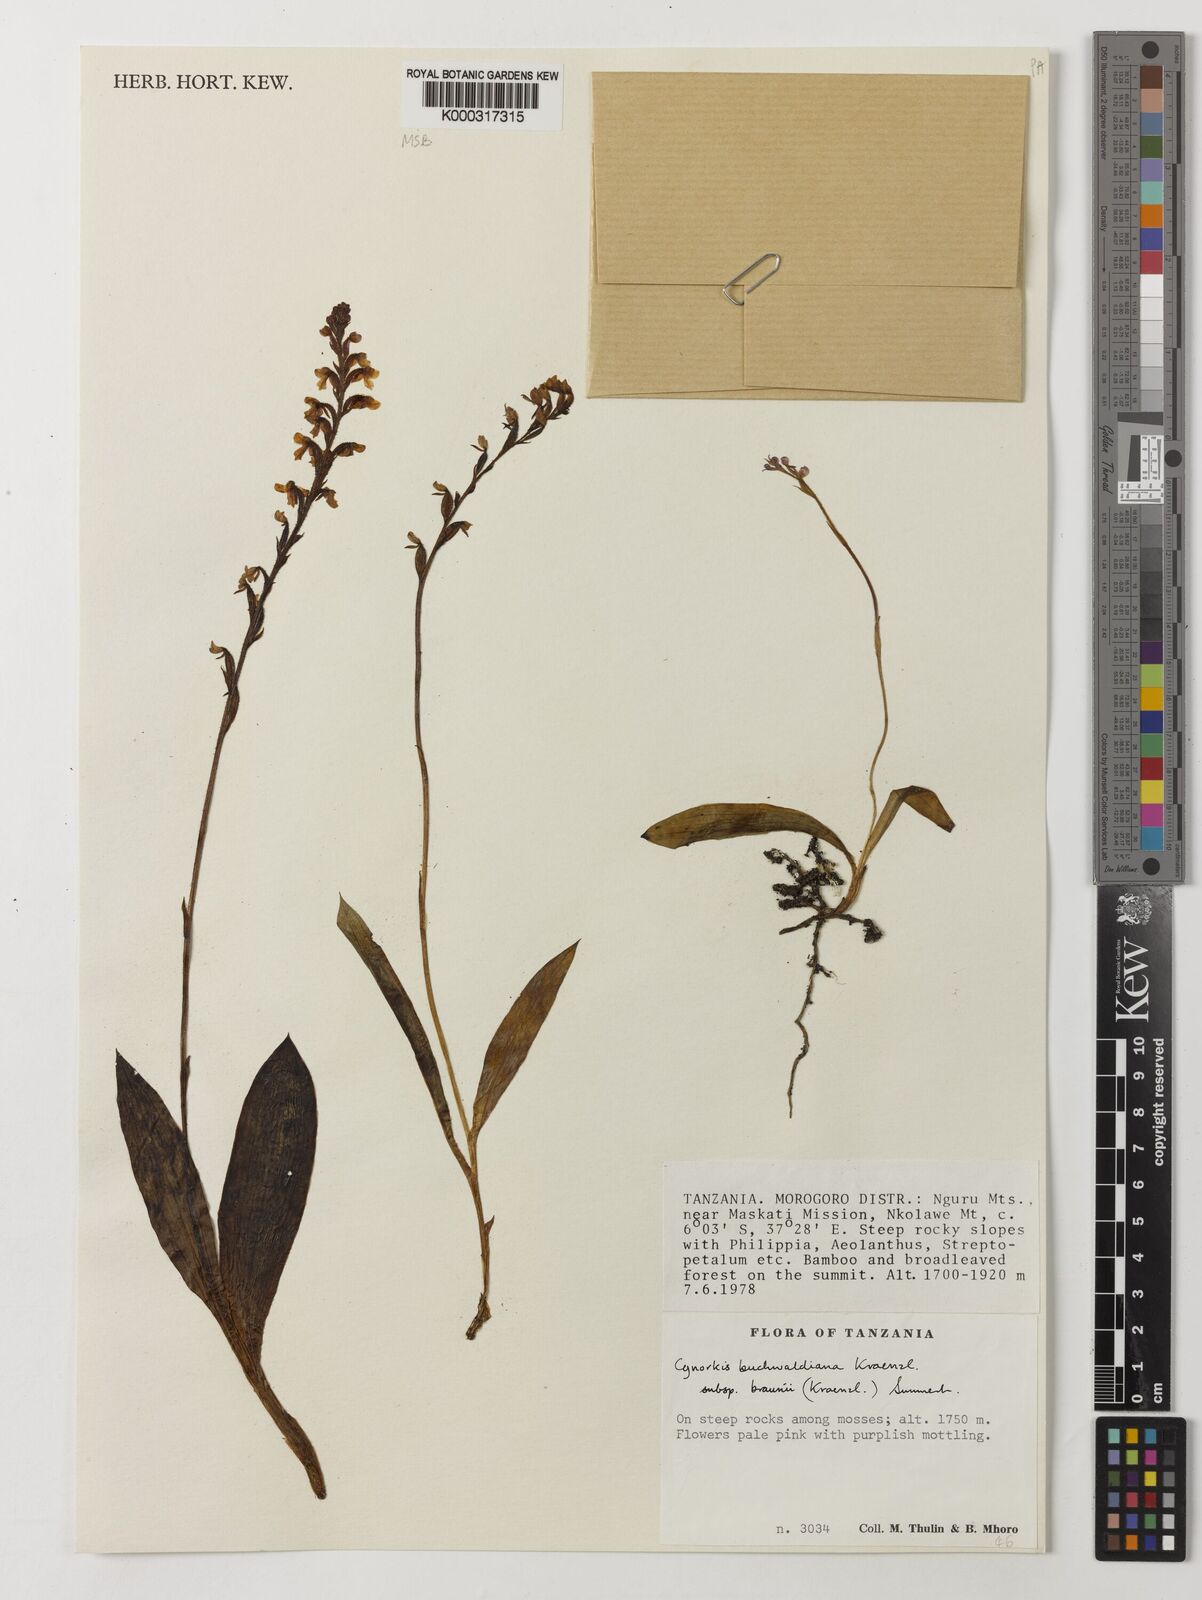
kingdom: Plantae
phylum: Tracheophyta
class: Liliopsida
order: Asparagales
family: Orchidaceae
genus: Cynorkis
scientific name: Cynorkis buchwaldiana
